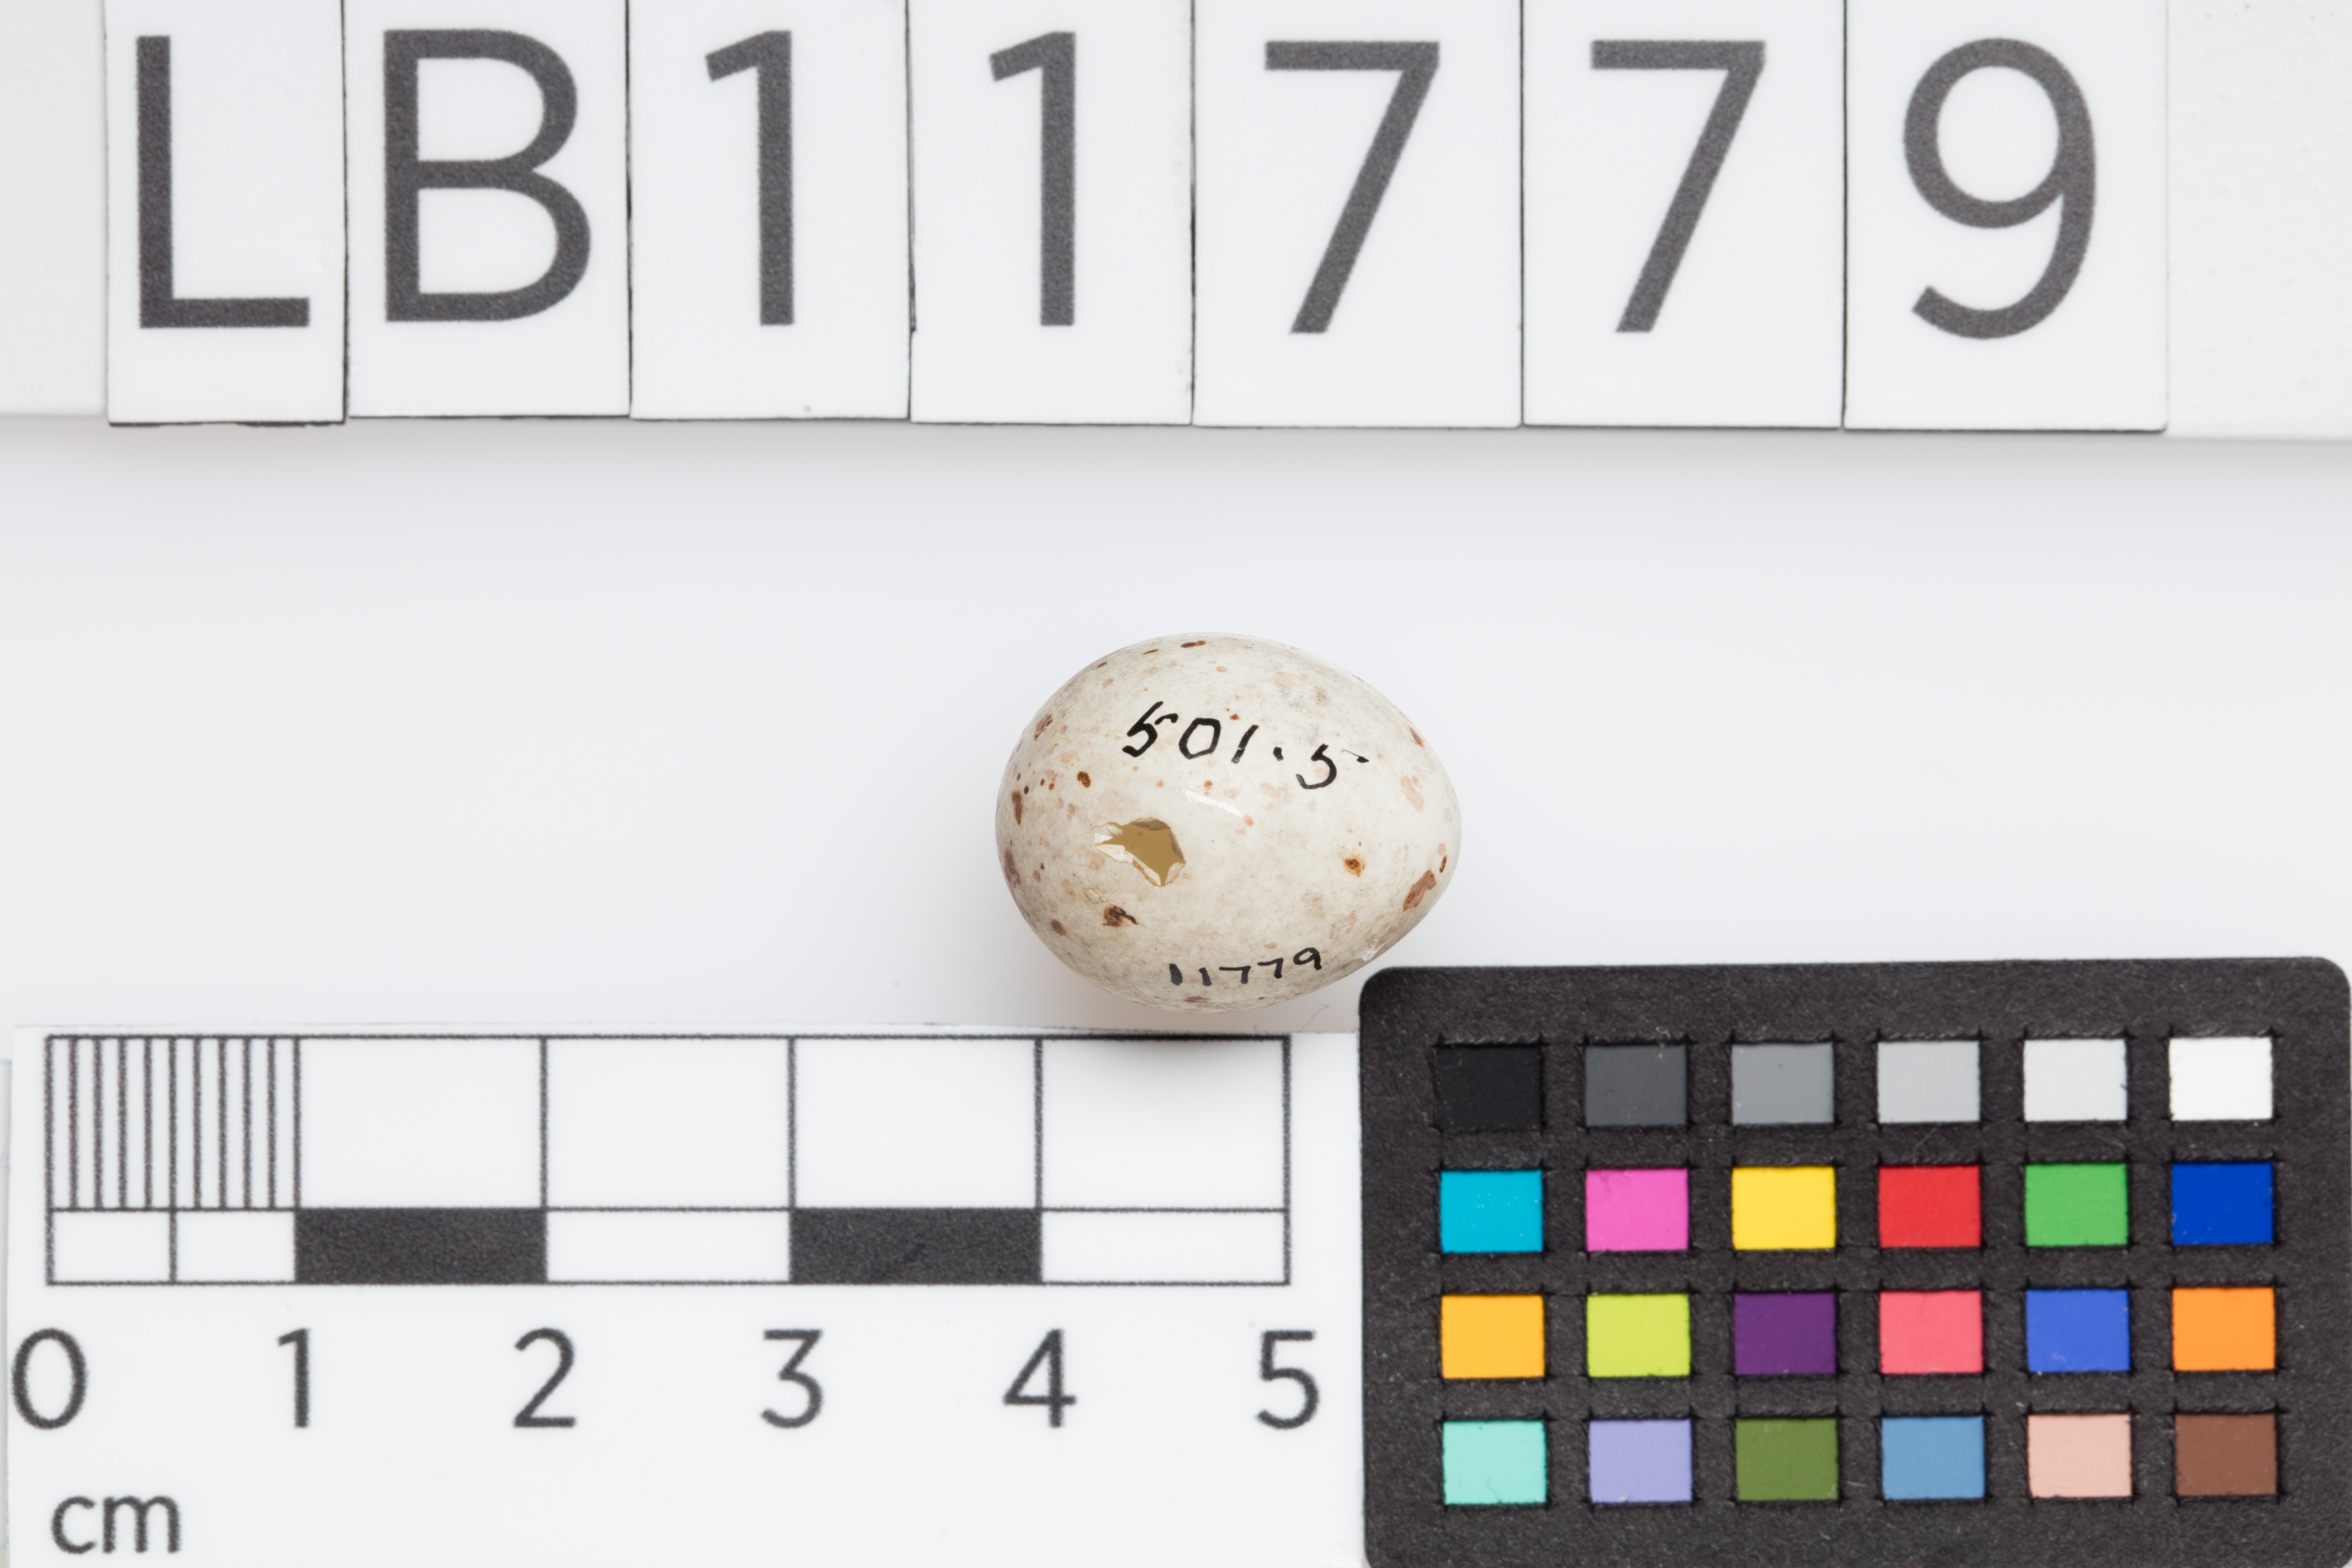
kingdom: Animalia
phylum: Chordata
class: Aves
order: Passeriformes
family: Fringillidae
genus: Coccothraustes
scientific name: Coccothraustes coccothraustes
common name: Hawfinch
